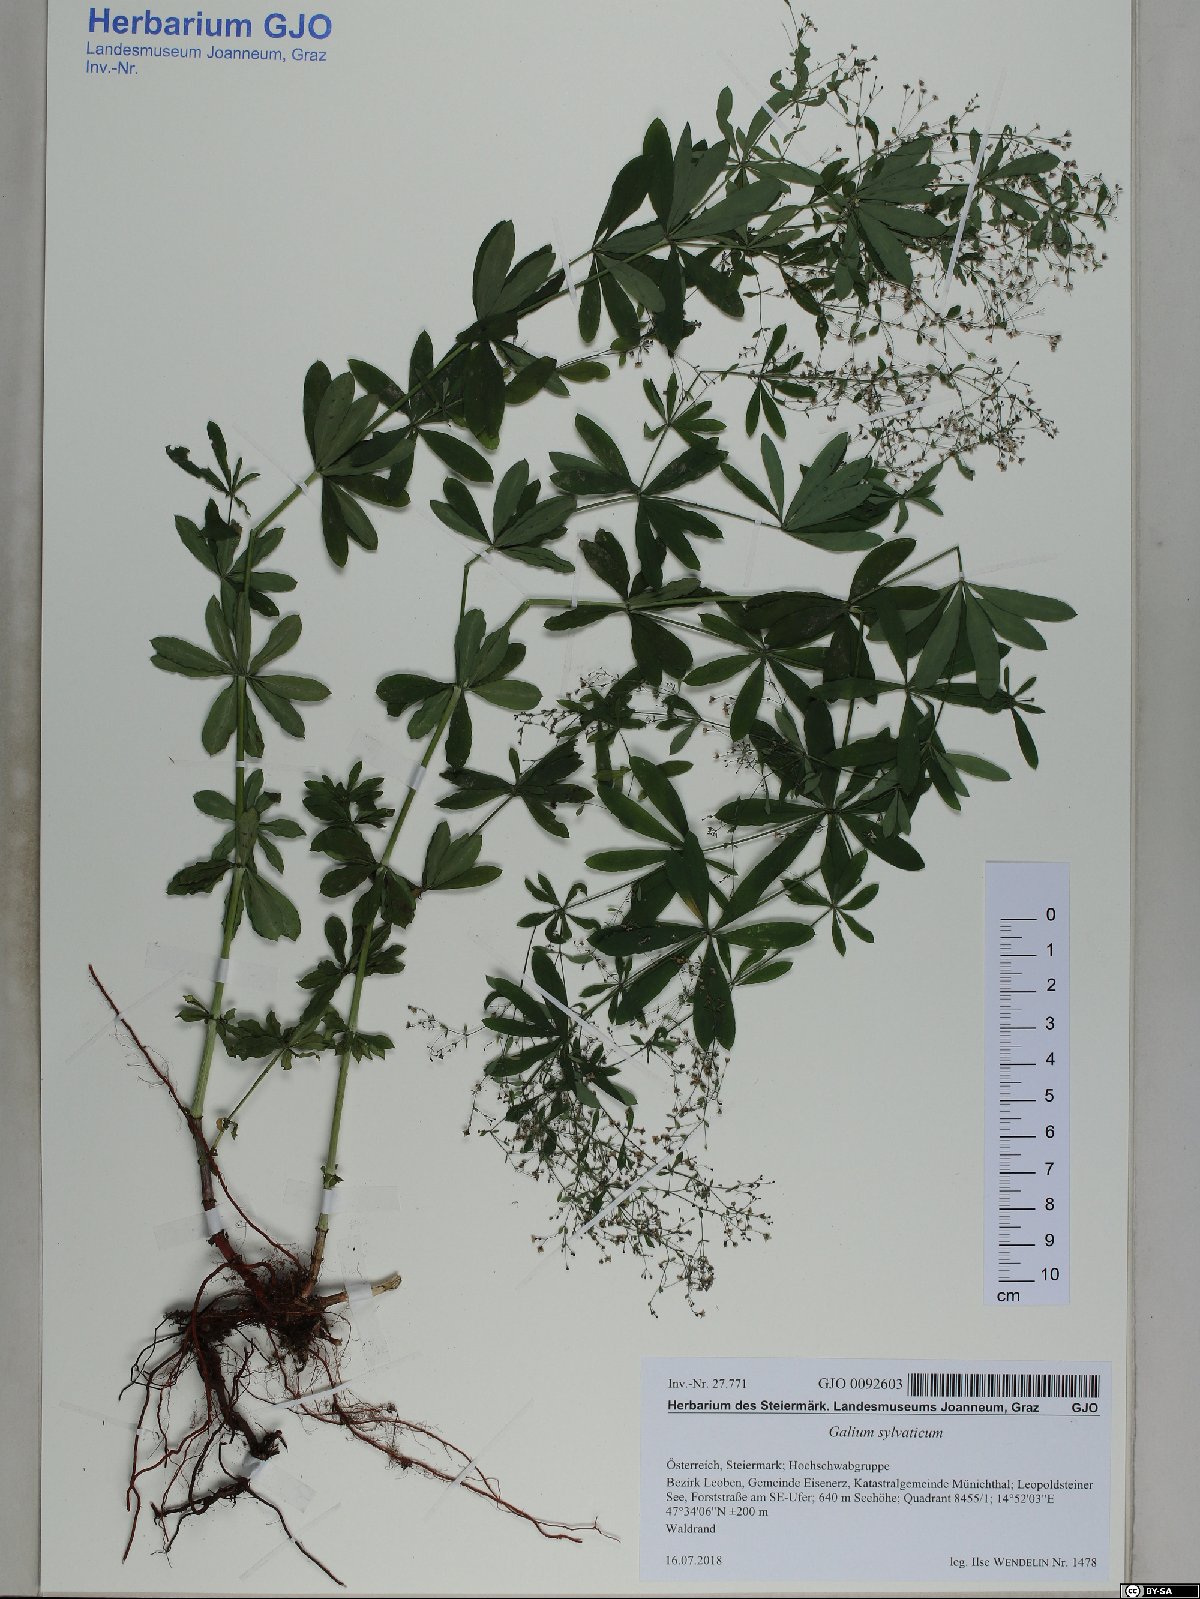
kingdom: Plantae
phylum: Tracheophyta
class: Magnoliopsida
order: Gentianales
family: Rubiaceae
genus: Galium
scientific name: Galium sylvaticum
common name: Wood bedstraw
